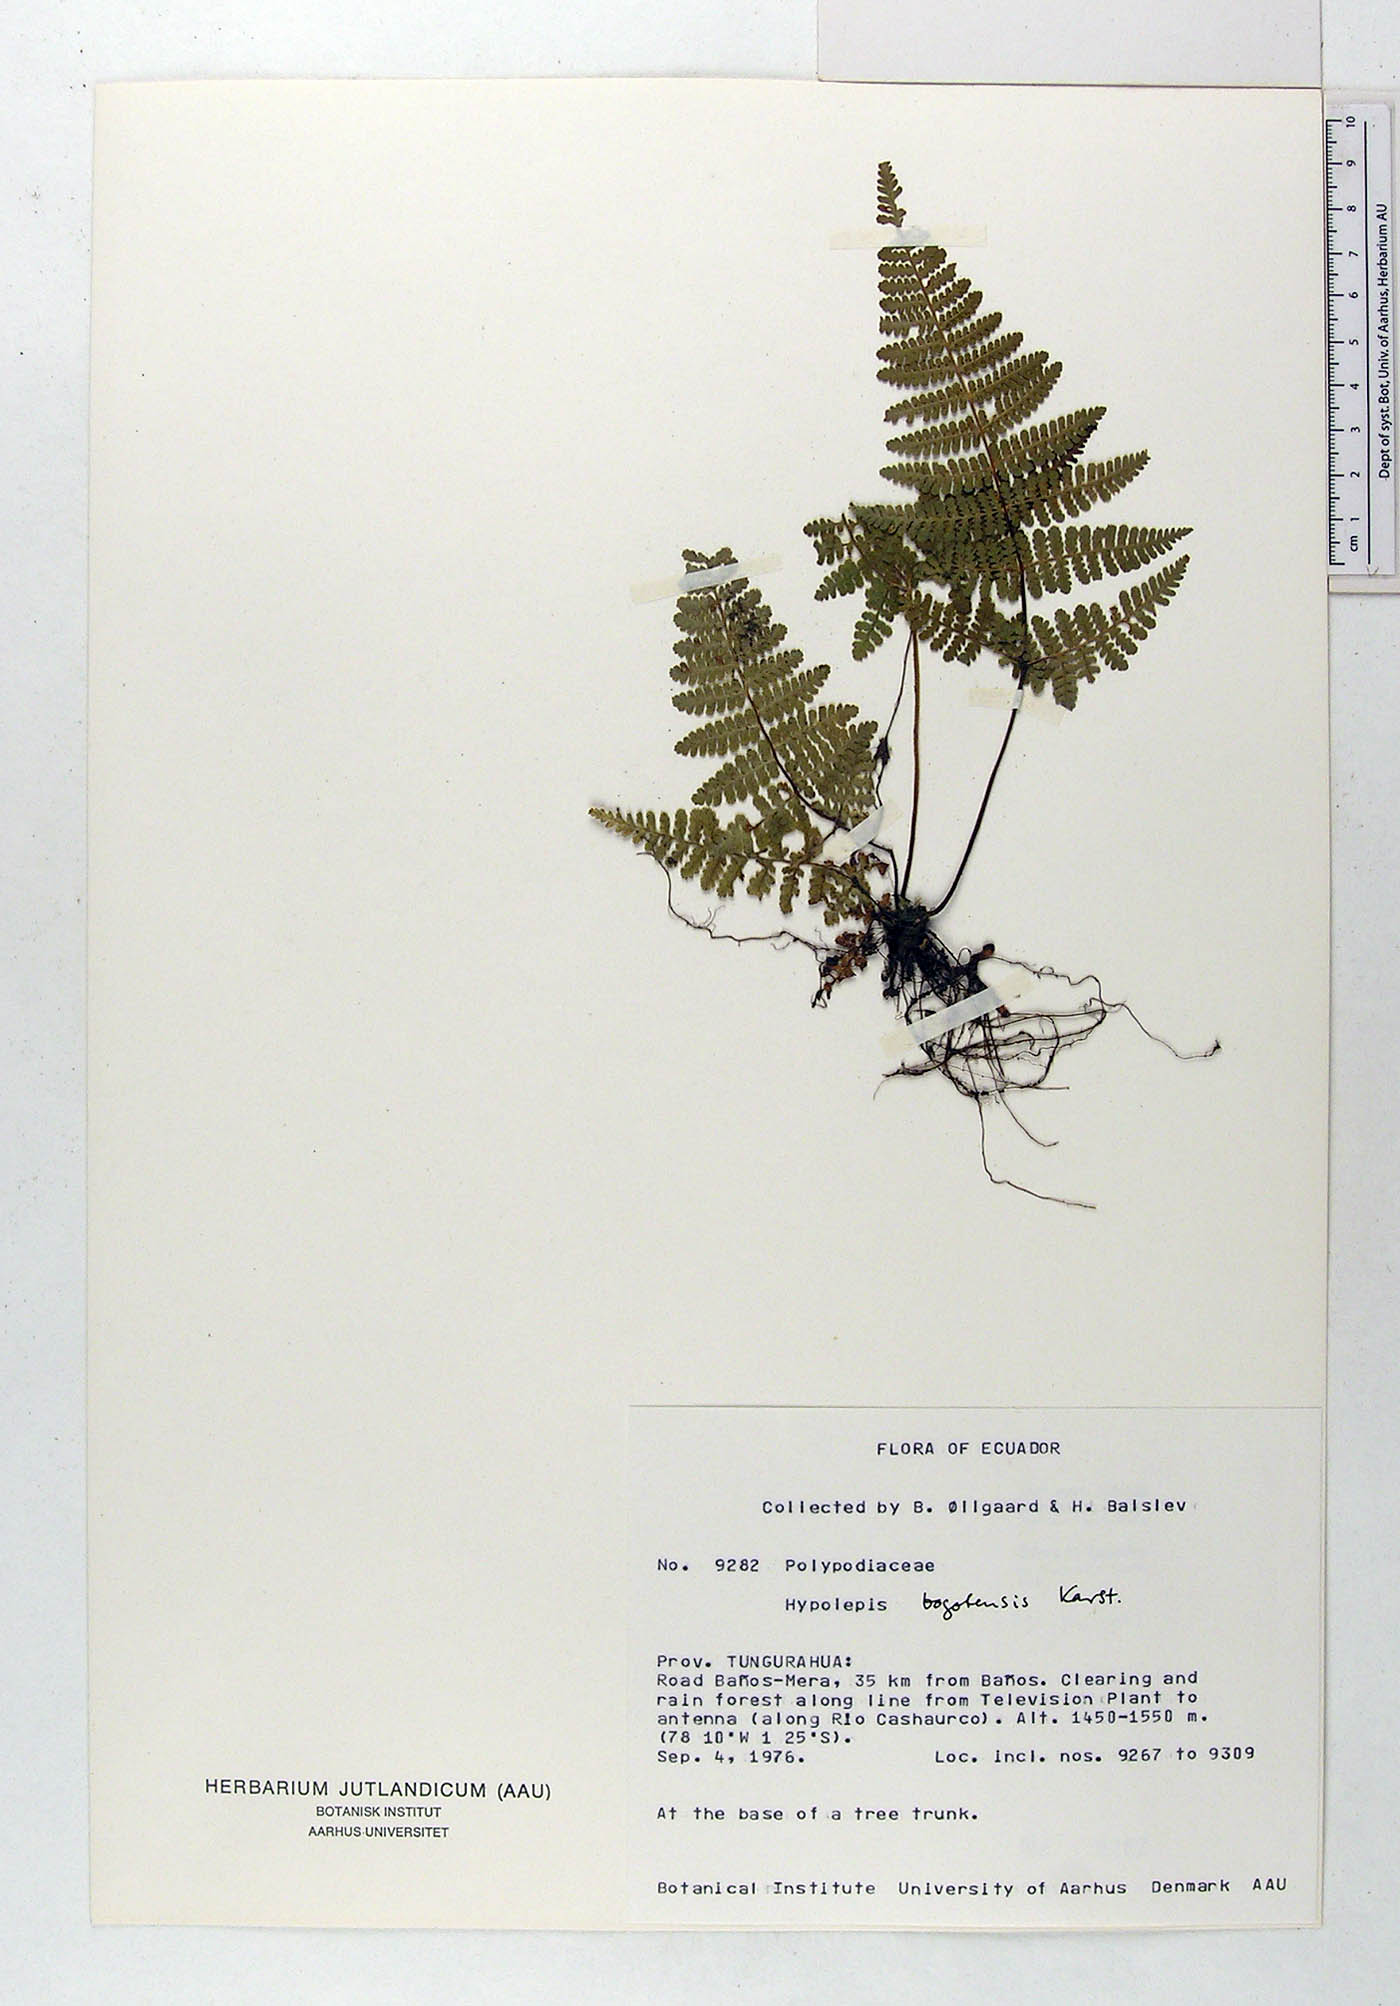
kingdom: Plantae
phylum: Tracheophyta
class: Polypodiopsida
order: Polypodiales
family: Dennstaedtiaceae
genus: Hypolepis
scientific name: Hypolepis bogotensis
